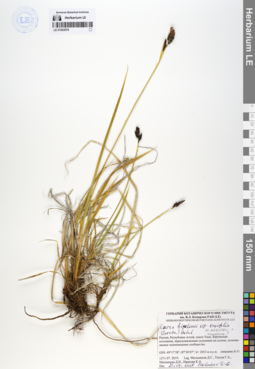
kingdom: Plantae
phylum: Tracheophyta
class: Liliopsida
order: Poales
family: Cyperaceae
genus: Carex
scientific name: Carex bigelowii
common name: Stiff sedge
